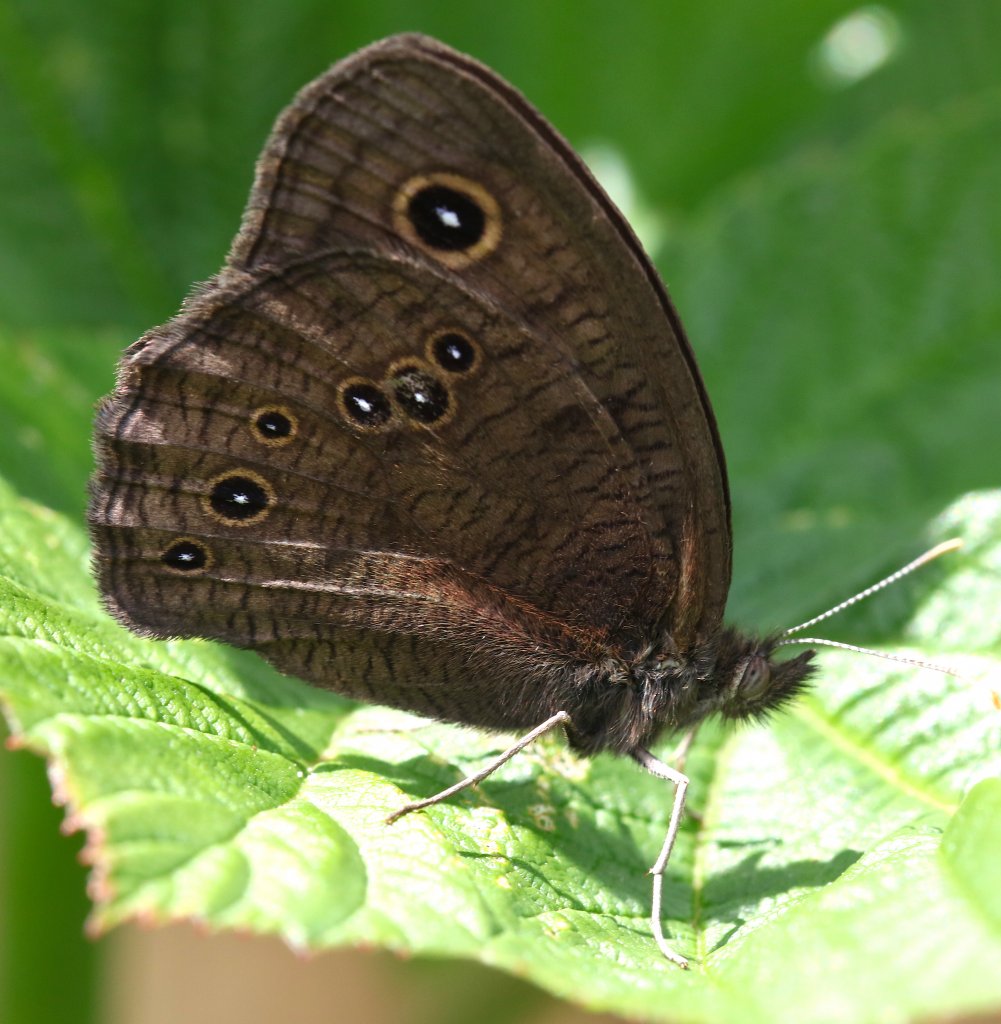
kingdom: Animalia
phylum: Arthropoda
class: Insecta
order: Lepidoptera
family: Nymphalidae
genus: Cercyonis
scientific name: Cercyonis pegala
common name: Common Wood-Nymph
